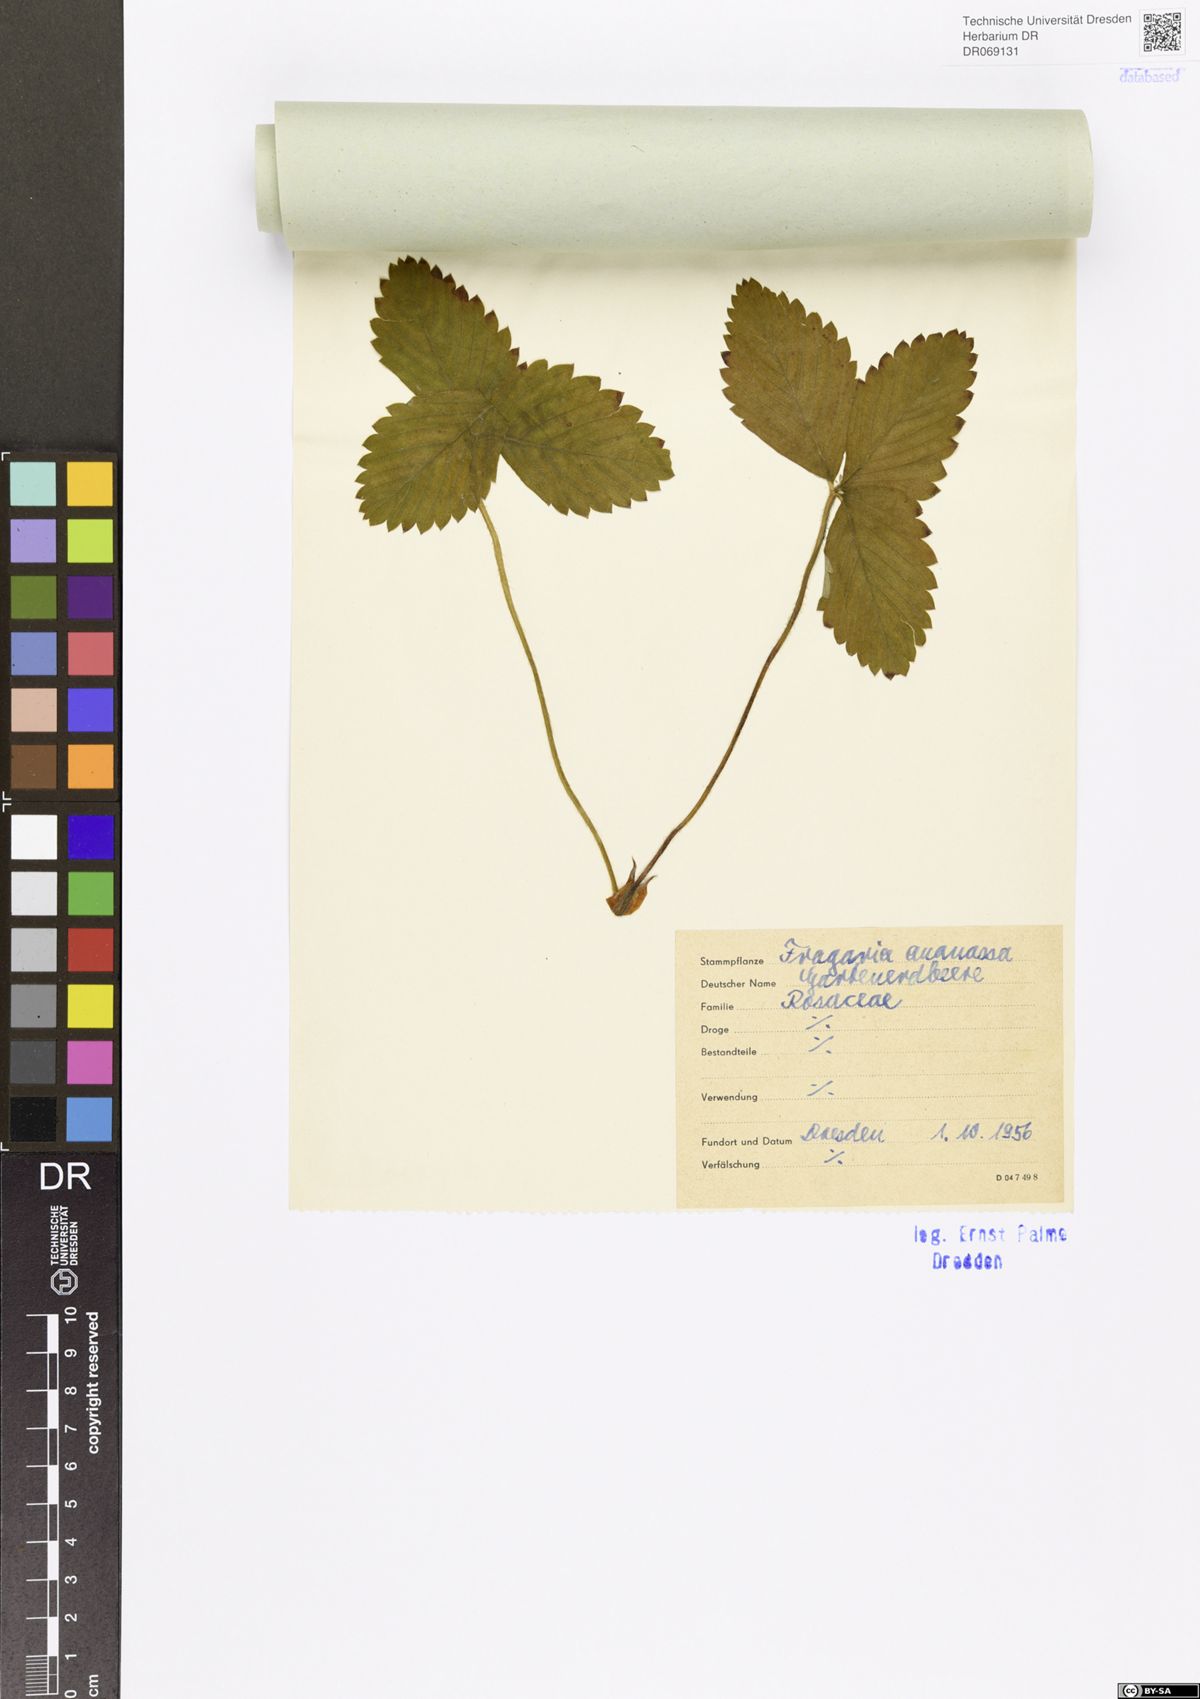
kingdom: Plantae
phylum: Tracheophyta
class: Magnoliopsida
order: Rosales
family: Rosaceae
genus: Fragaria
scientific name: Fragaria ananassa
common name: Garden strawberry
